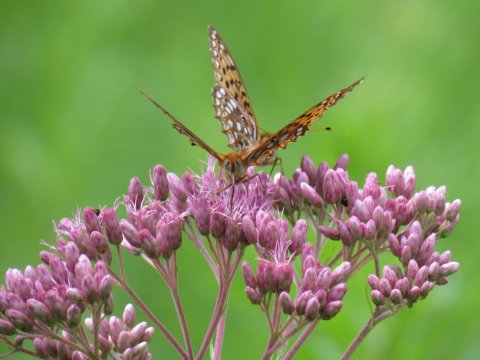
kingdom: Animalia
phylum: Arthropoda
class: Insecta
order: Lepidoptera
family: Nymphalidae
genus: Speyeria
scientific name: Speyeria atlantis
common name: Atlantis Fritillary
